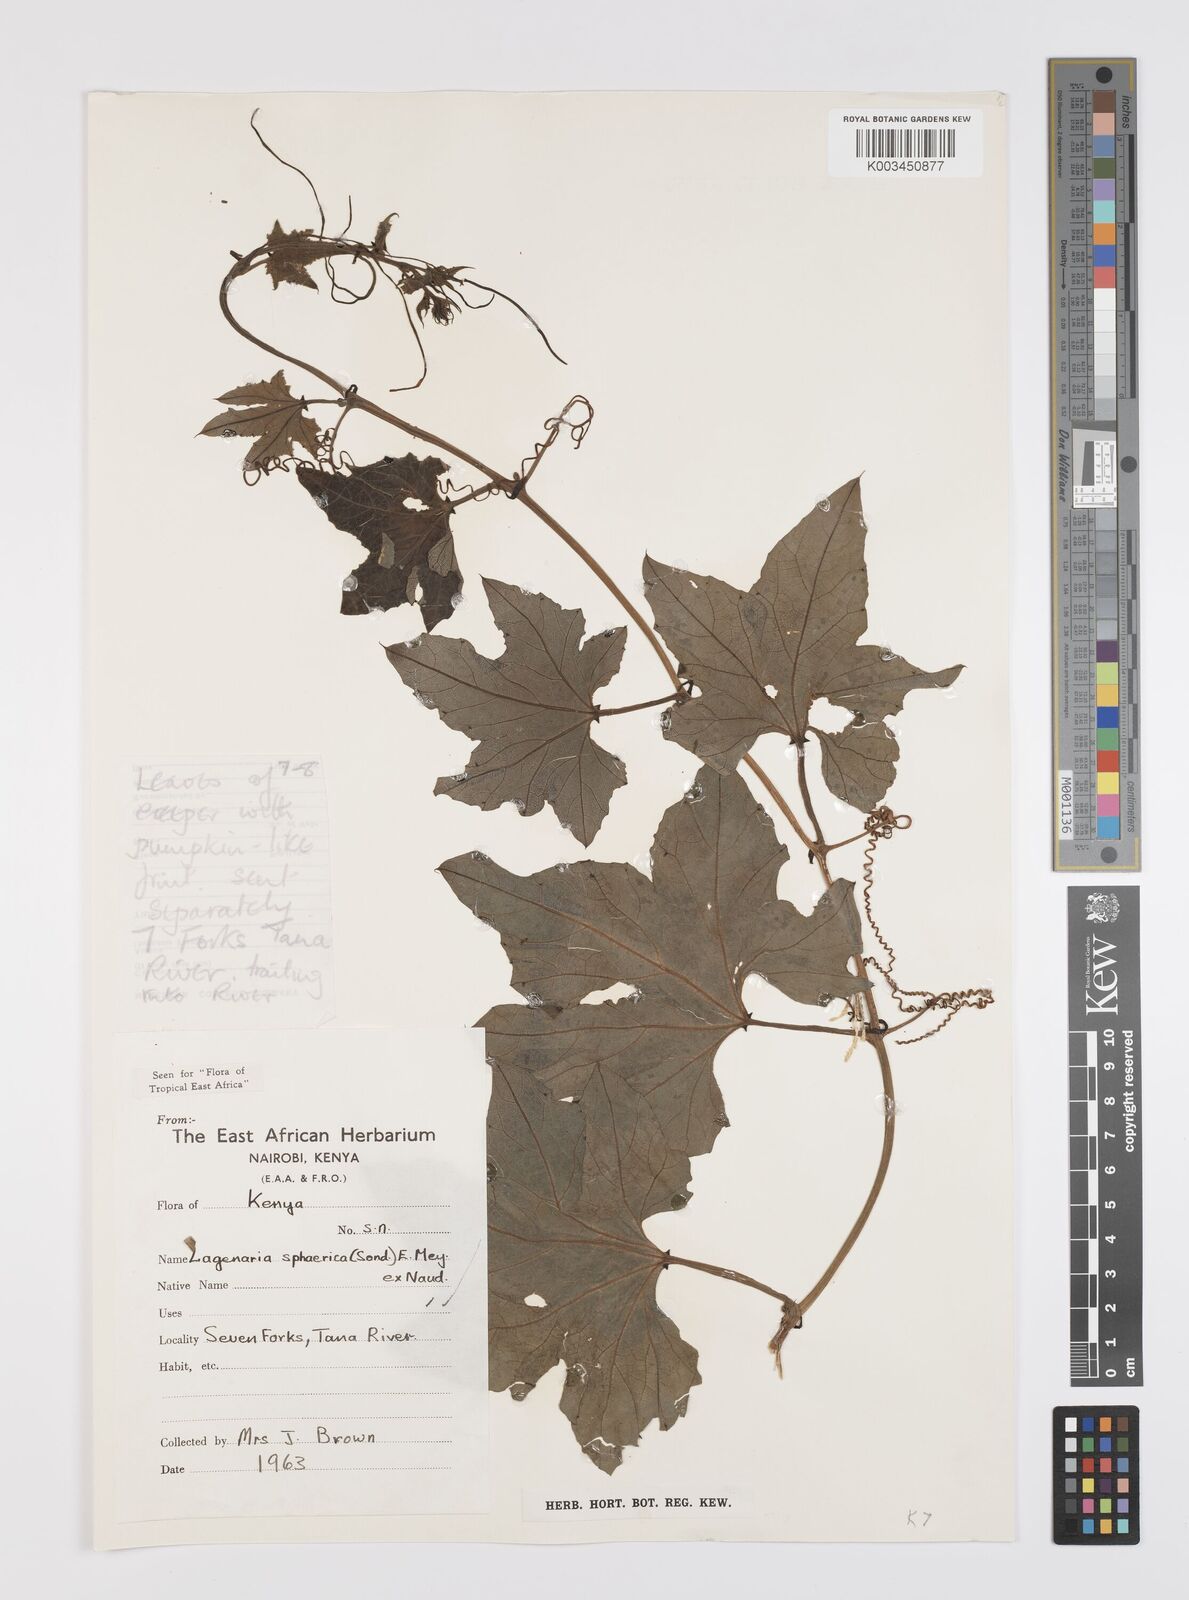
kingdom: Plantae
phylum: Tracheophyta
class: Magnoliopsida
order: Cucurbitales
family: Cucurbitaceae
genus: Lagenaria
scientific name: Lagenaria sphaerica
